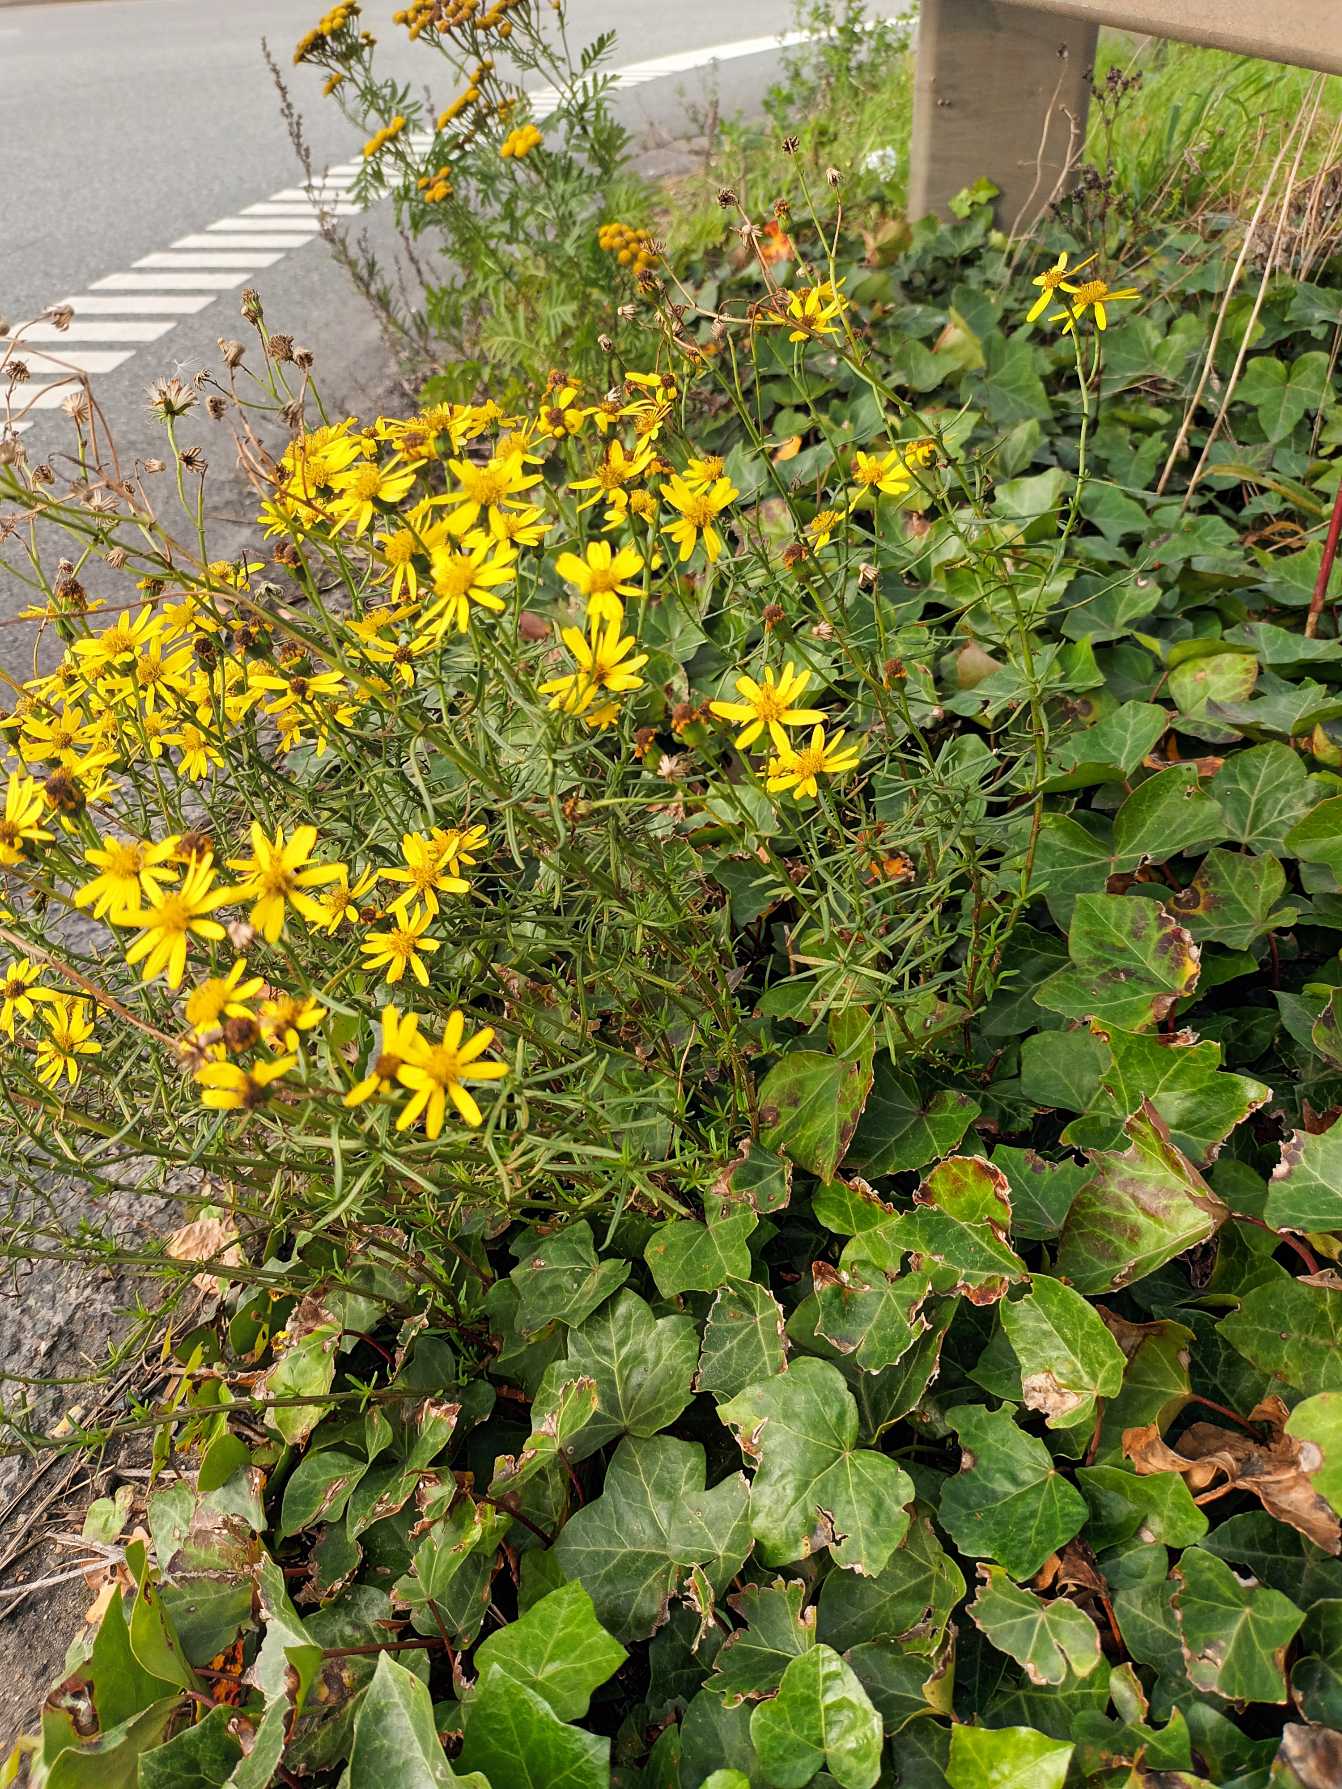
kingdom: Plantae
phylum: Tracheophyta
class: Magnoliopsida
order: Asterales
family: Asteraceae
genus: Senecio
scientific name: Senecio inaequidens
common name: Smalbladet brandbæger
